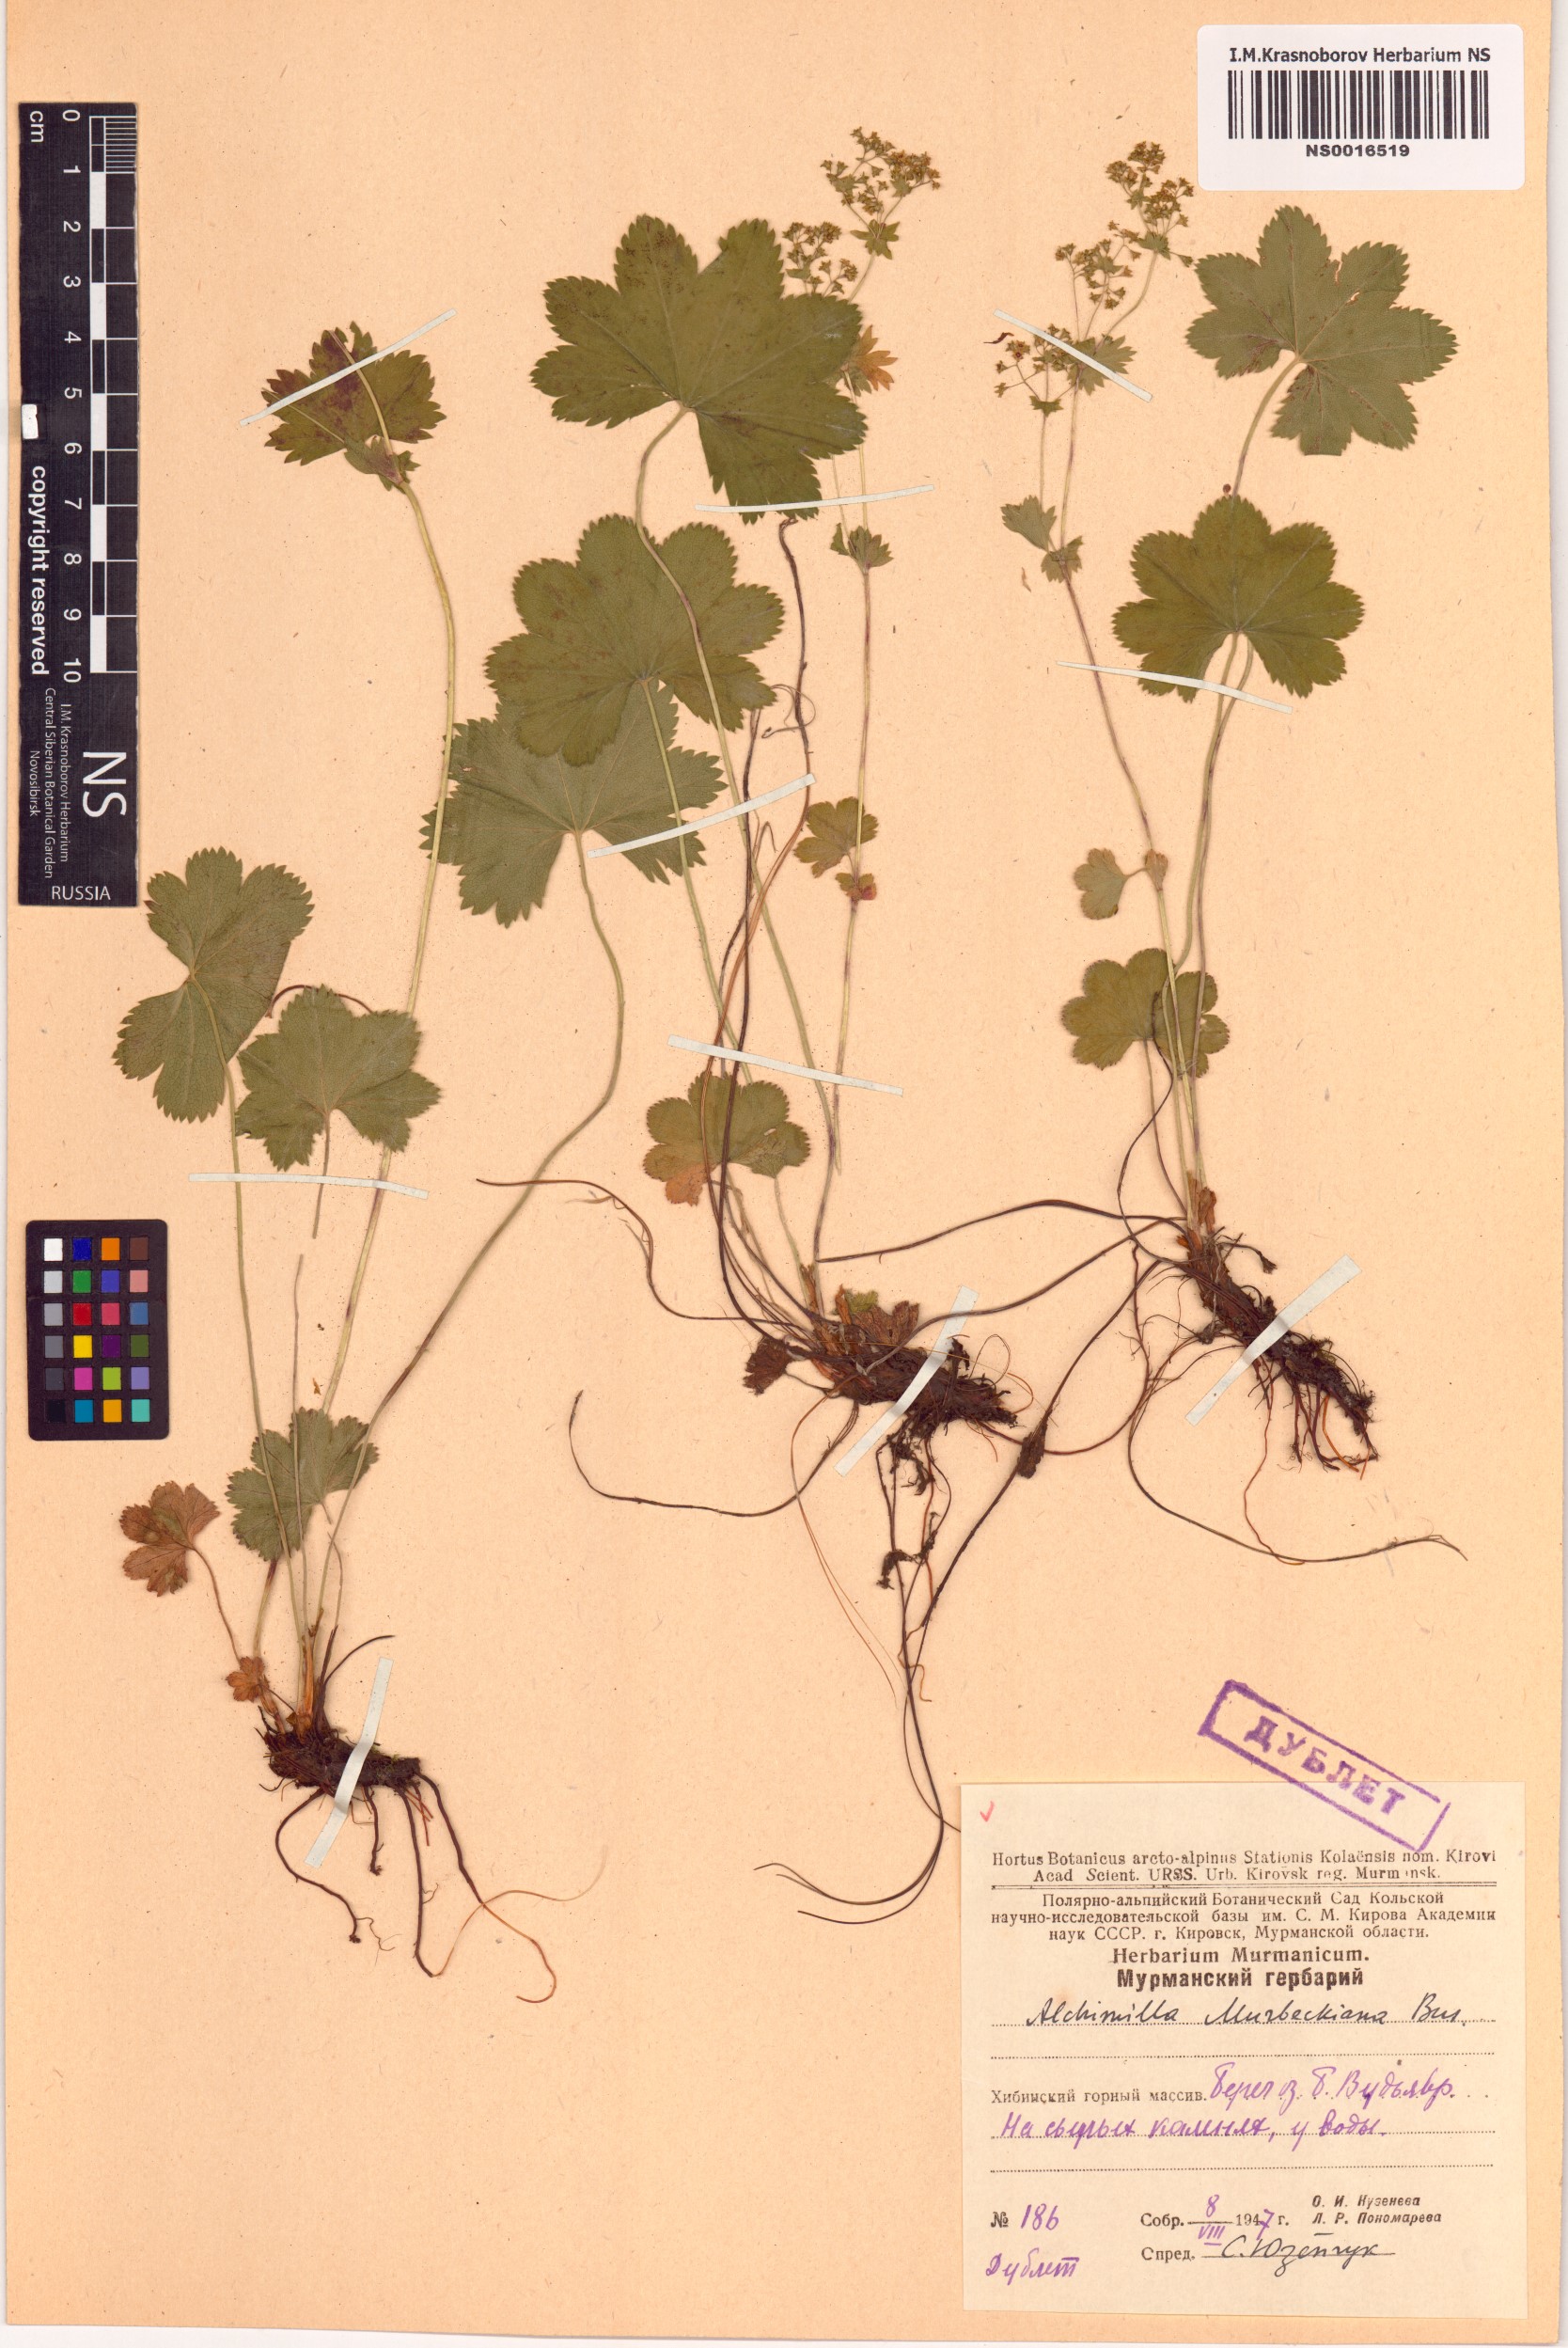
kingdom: Plantae
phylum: Tracheophyta
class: Magnoliopsida
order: Rosales
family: Rosaceae
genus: Alchemilla
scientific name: Alchemilla murbeckiana
